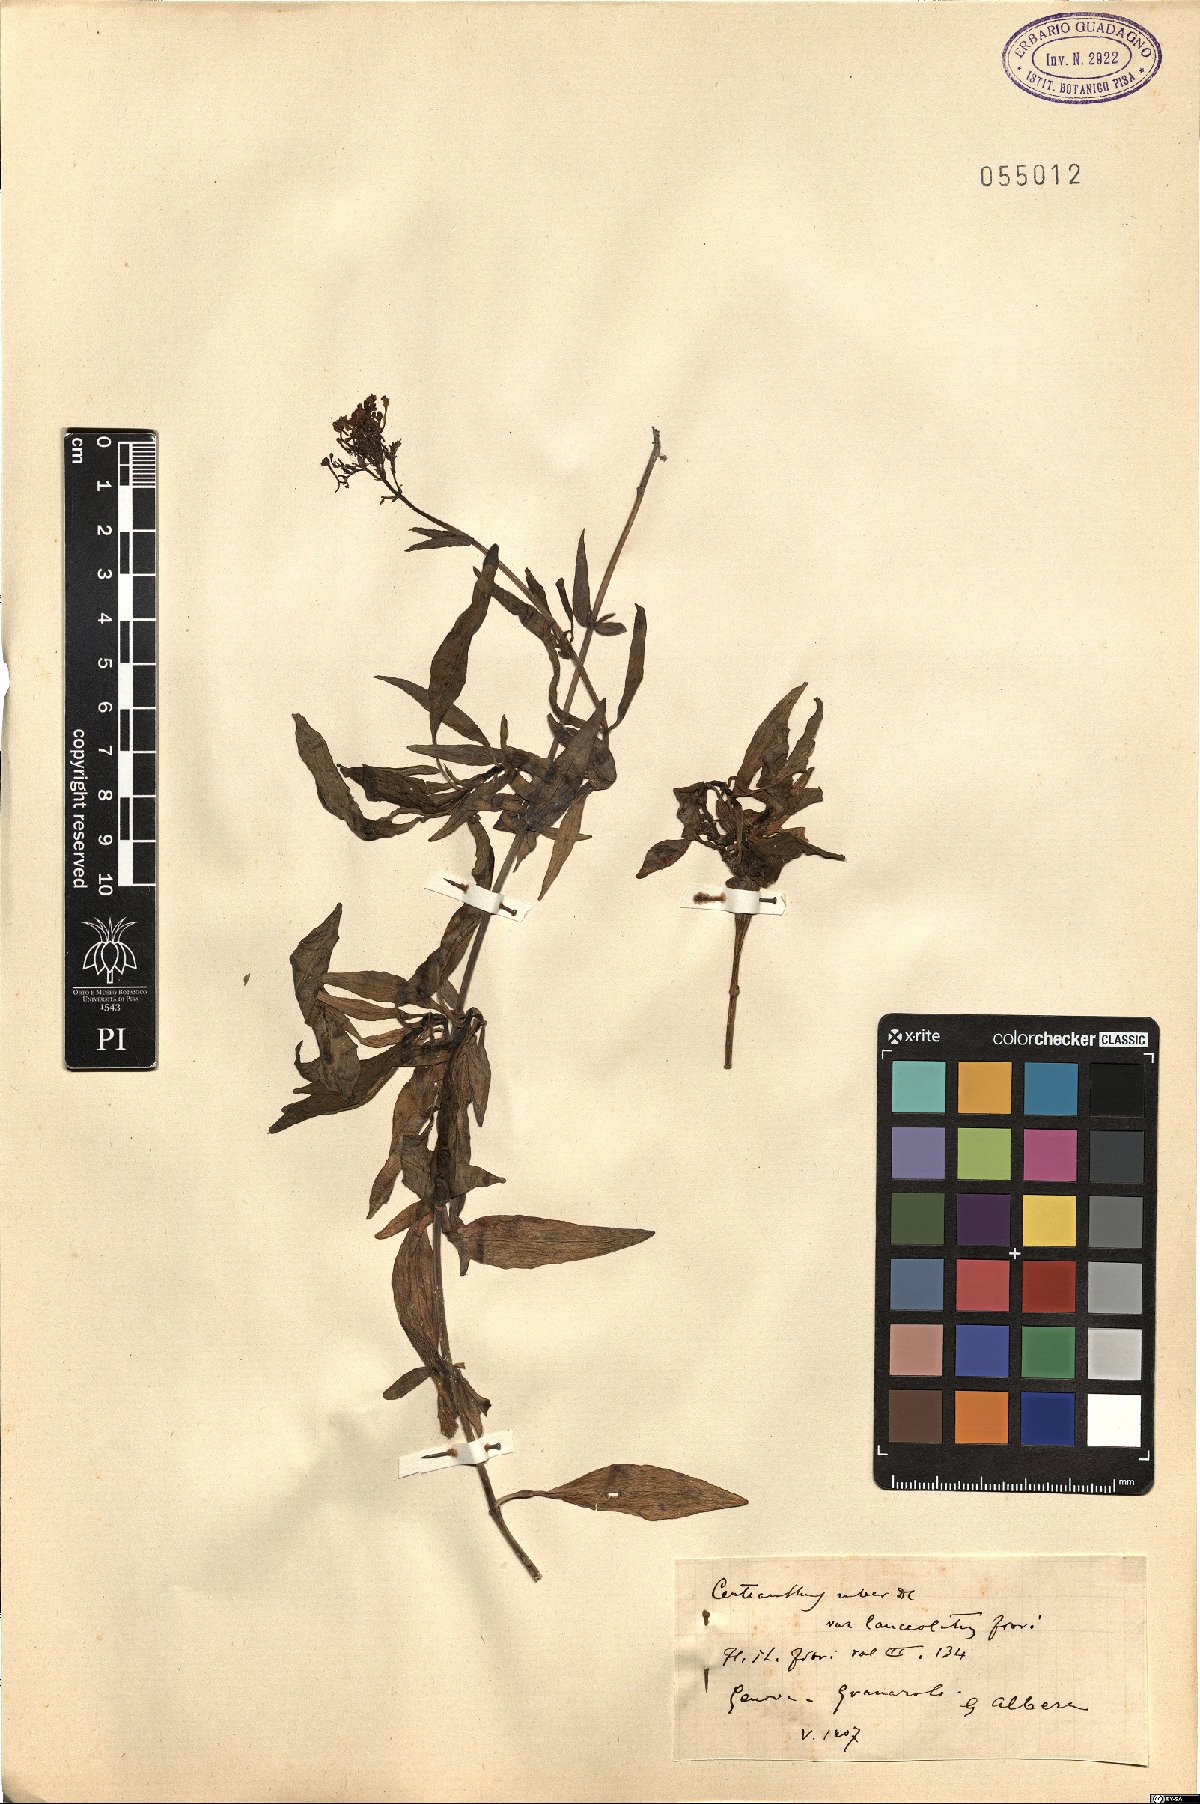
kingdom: Plantae
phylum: Tracheophyta
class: Magnoliopsida
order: Dipsacales
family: Caprifoliaceae
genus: Centranthus
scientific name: Centranthus ruber
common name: Red valerian
